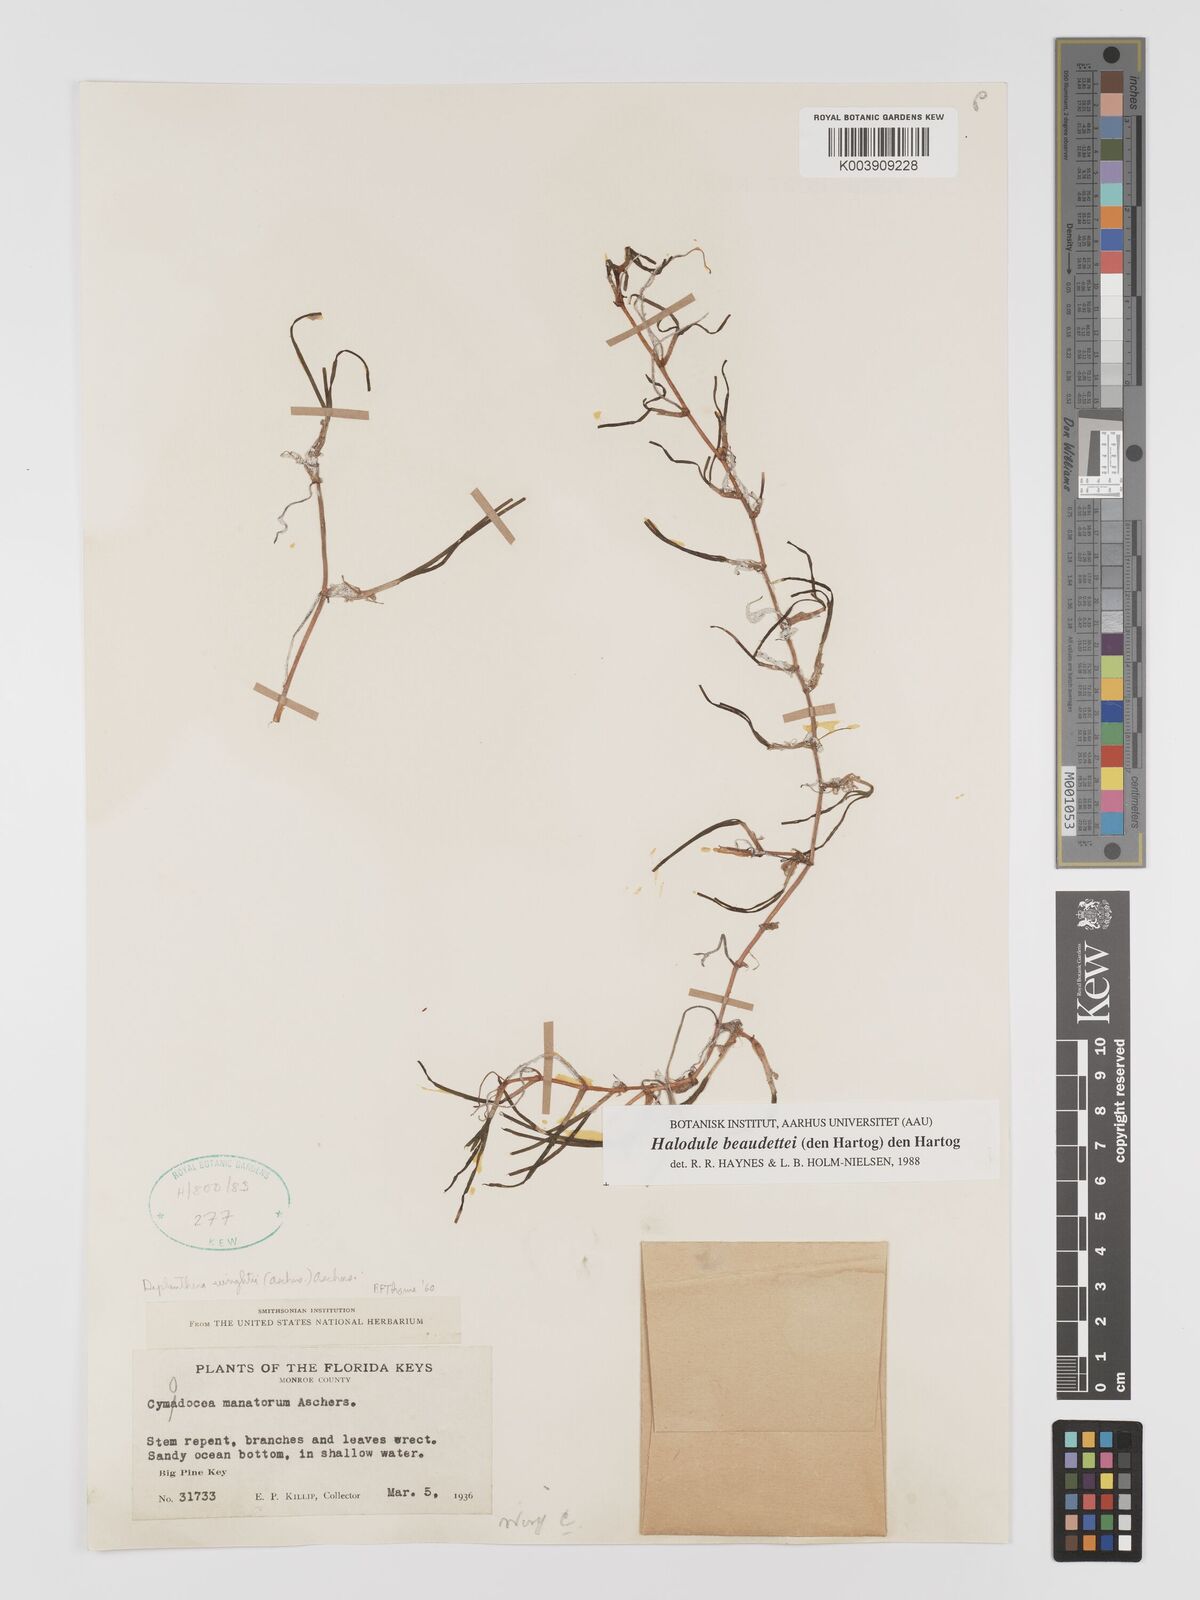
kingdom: Plantae
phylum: Tracheophyta
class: Liliopsida
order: Alismatales
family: Cymodoceaceae
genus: Halodule
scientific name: Halodule wrightii
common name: Shoalgrass
